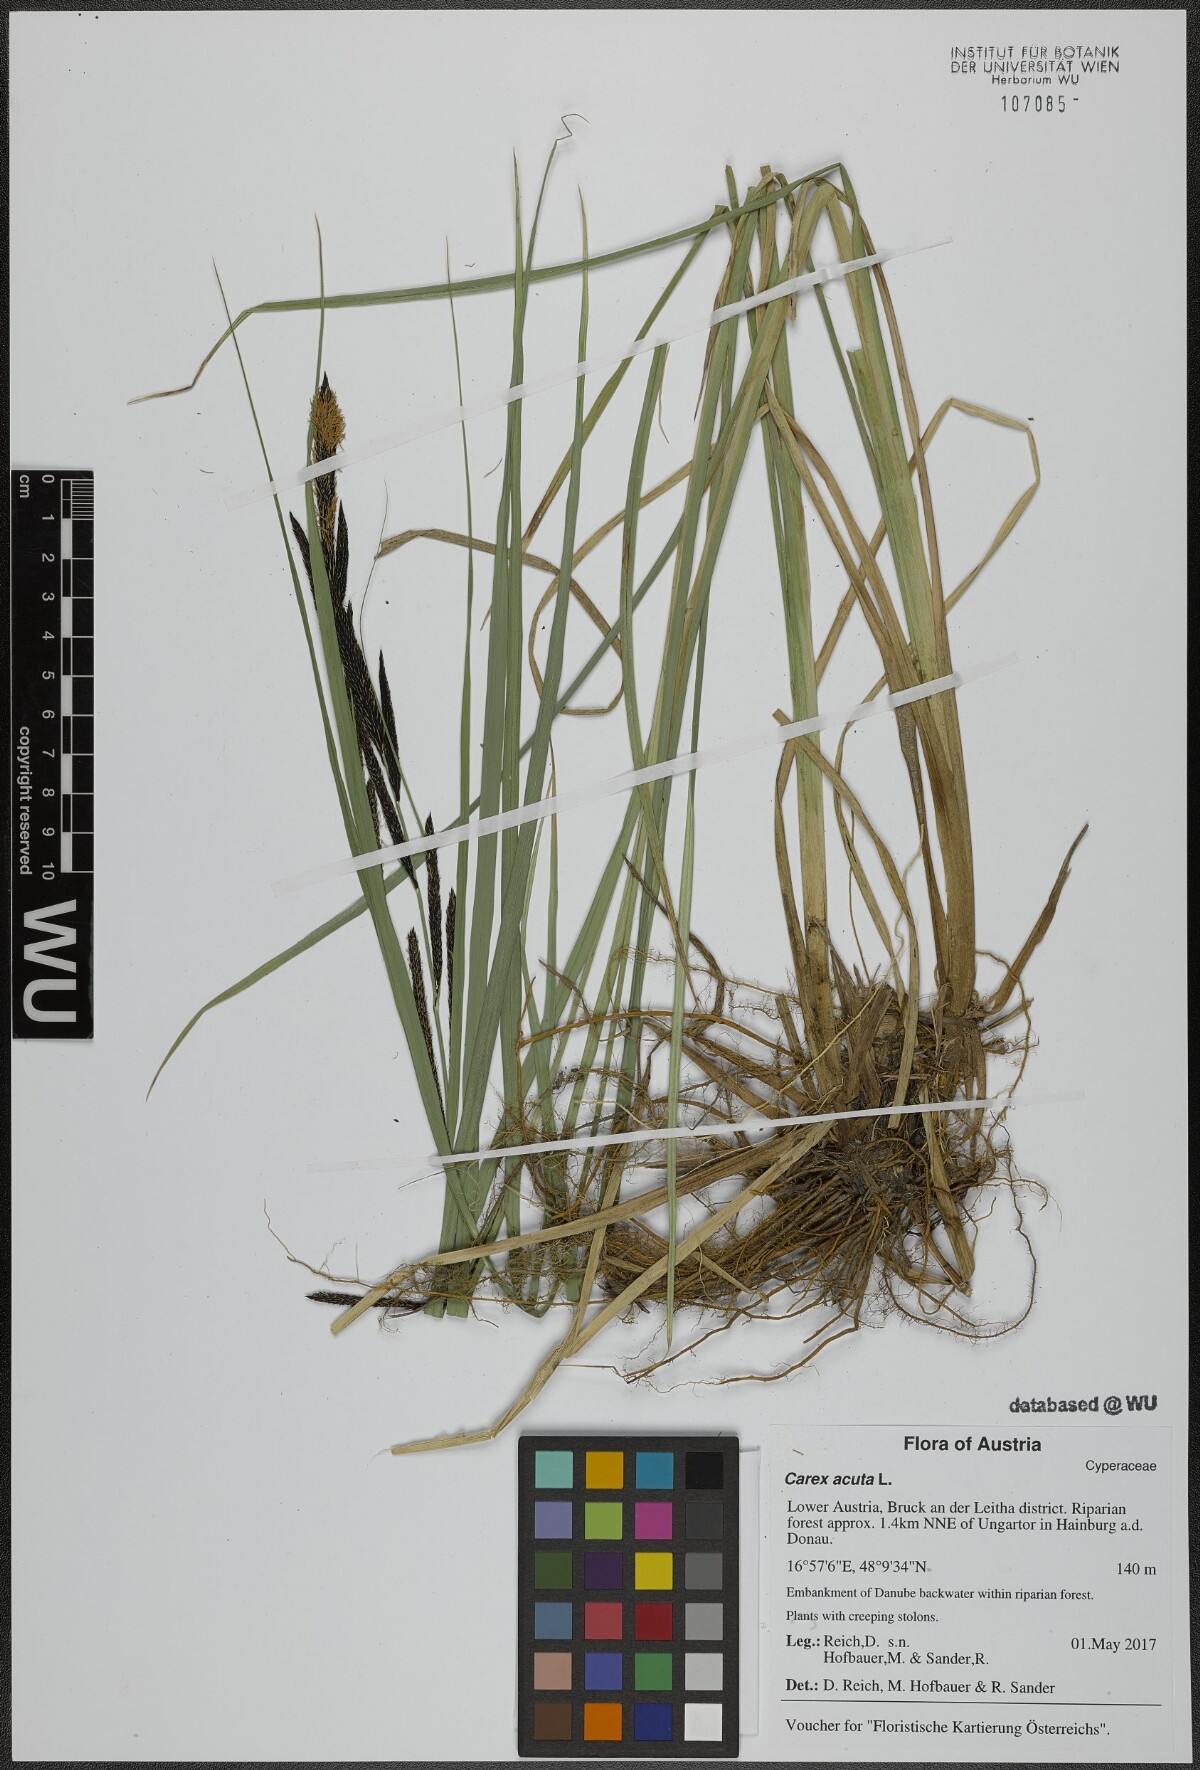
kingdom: Plantae
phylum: Tracheophyta
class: Liliopsida
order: Poales
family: Cyperaceae
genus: Carex
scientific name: Carex acuta
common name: Slender tufted-sedge
